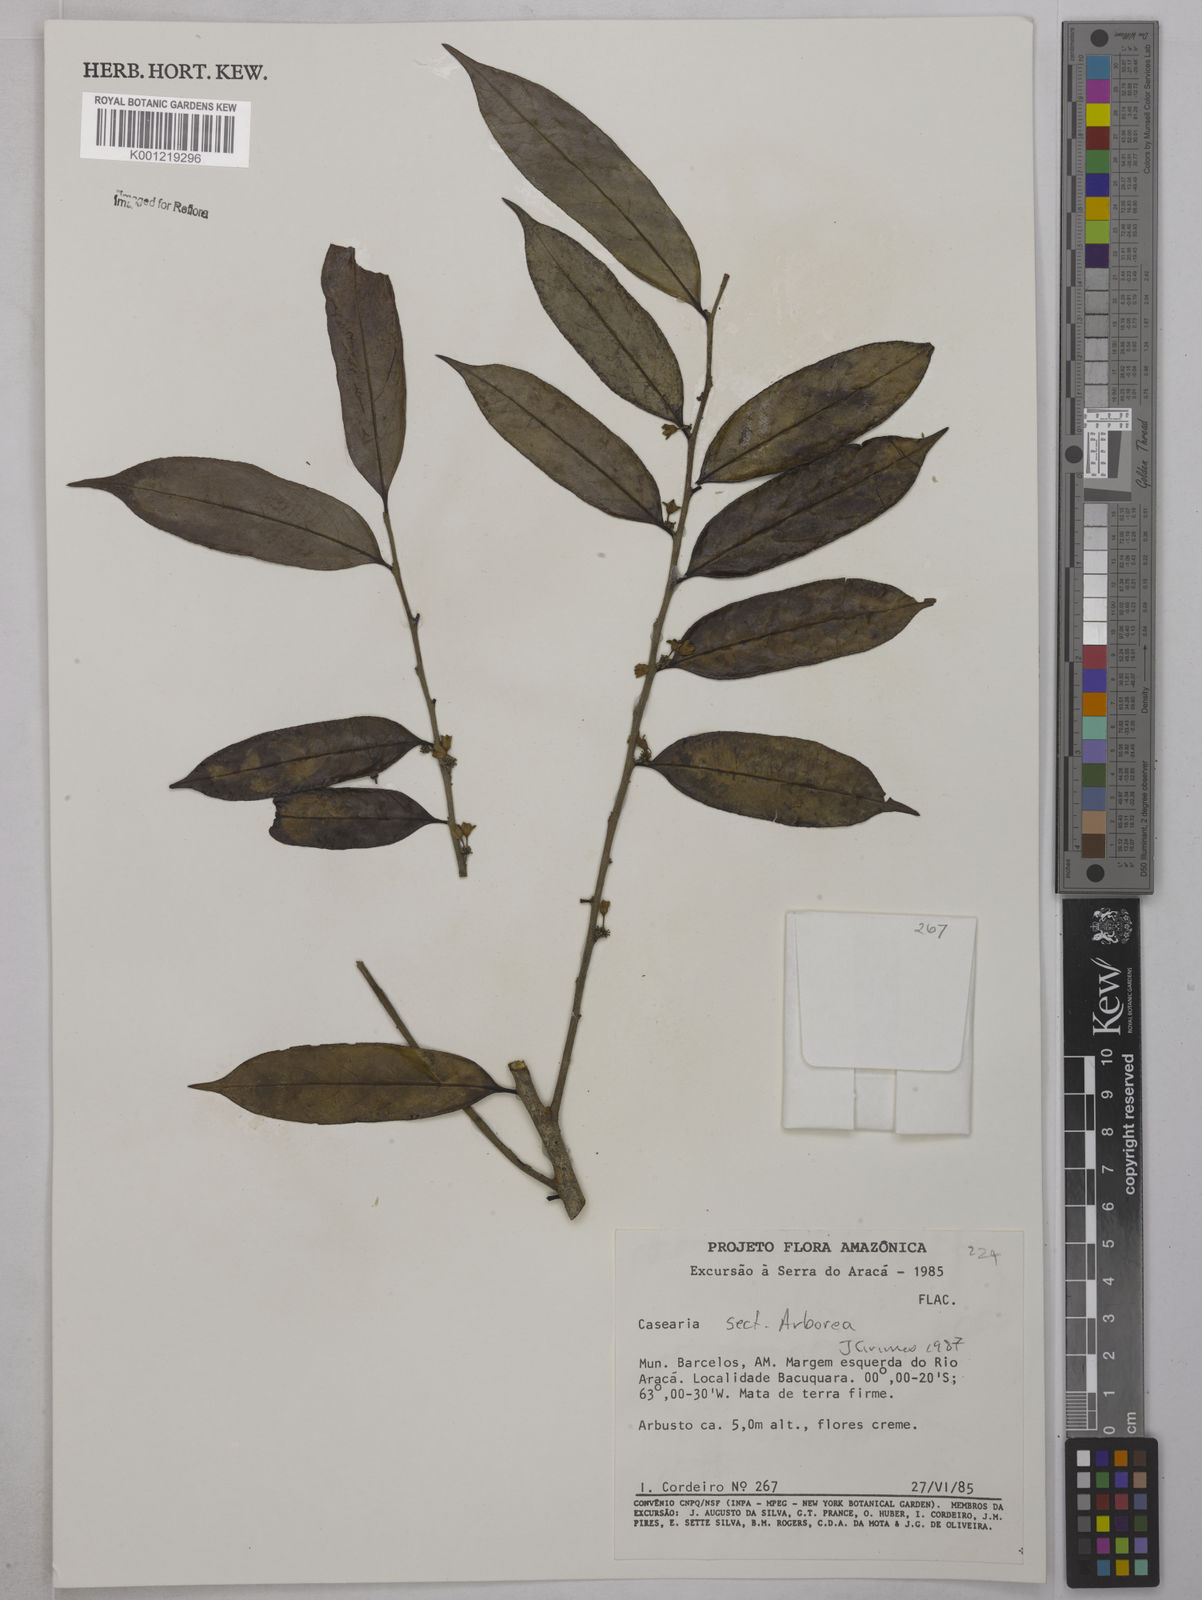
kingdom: Plantae
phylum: Tracheophyta
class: Magnoliopsida
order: Malpighiales
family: Salicaceae
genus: Casearia
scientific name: Casearia
